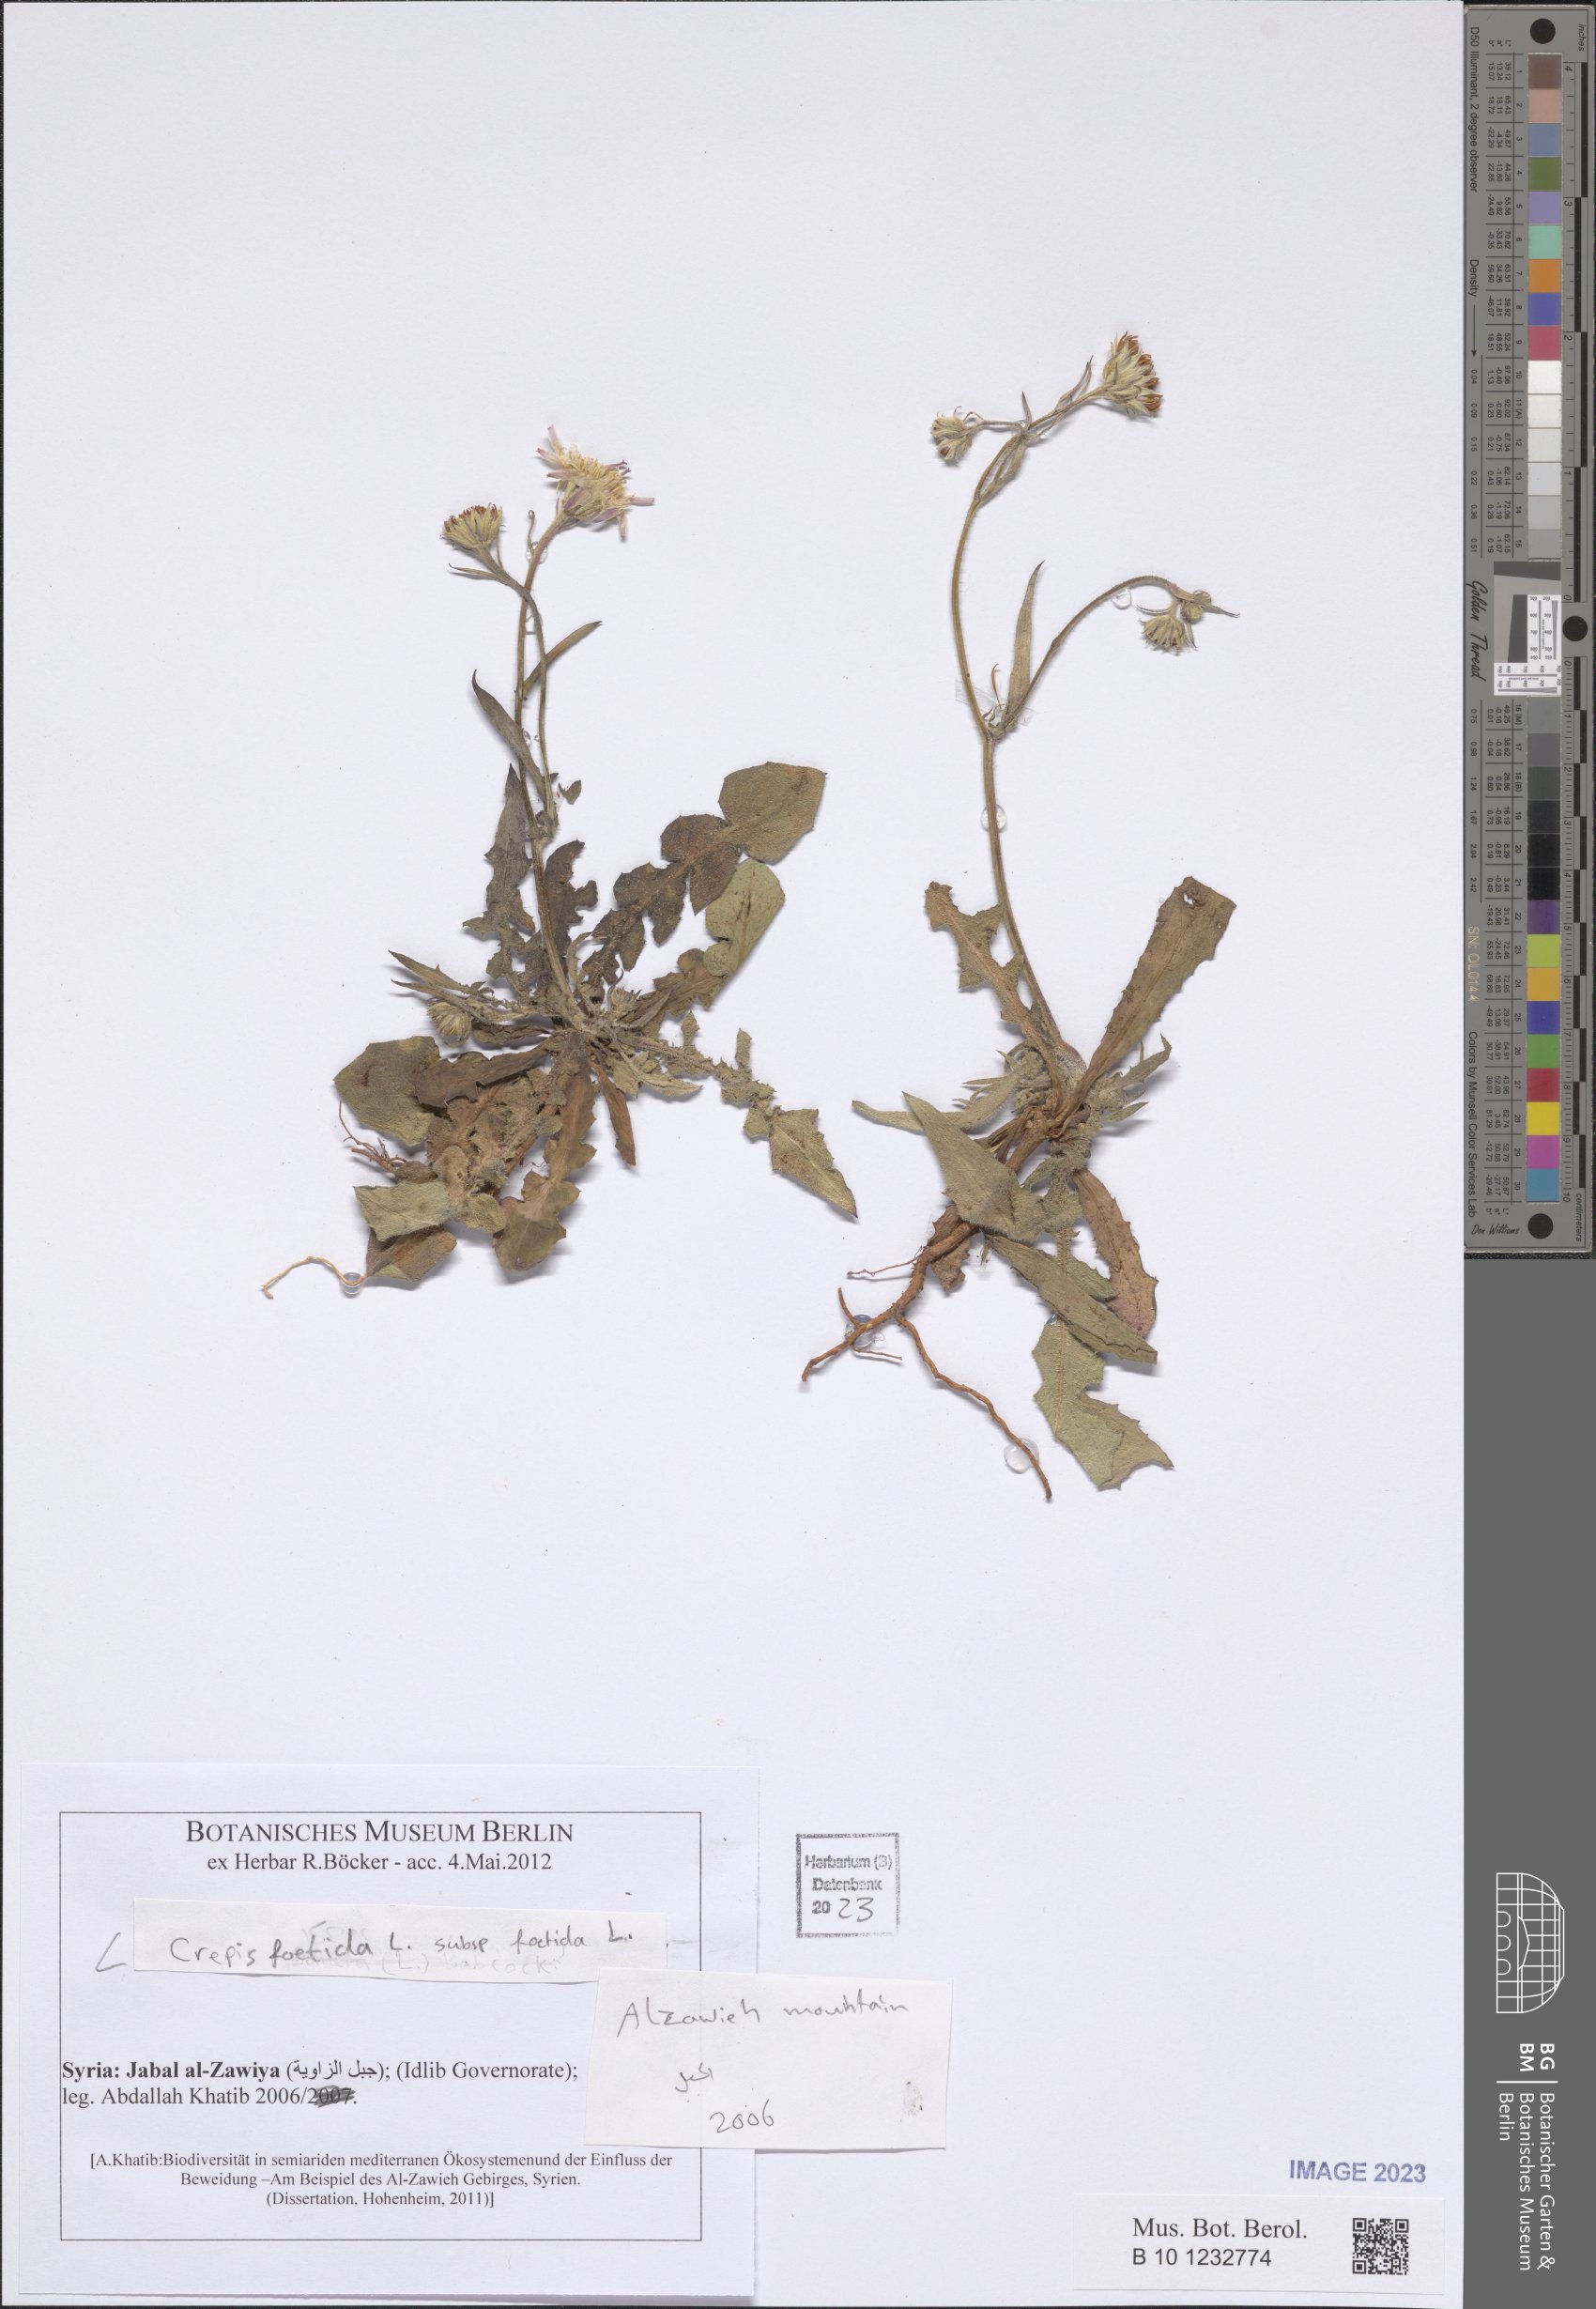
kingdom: Plantae
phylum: Tracheophyta
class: Magnoliopsida
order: Asterales
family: Asteraceae
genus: Crepis
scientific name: Crepis foetida
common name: Stinking hawk's-beard
